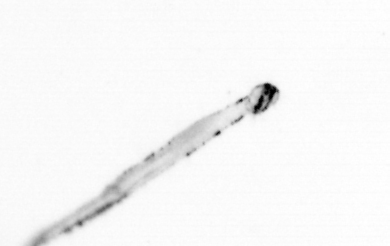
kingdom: Animalia
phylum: Chaetognatha
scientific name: Chaetognatha
